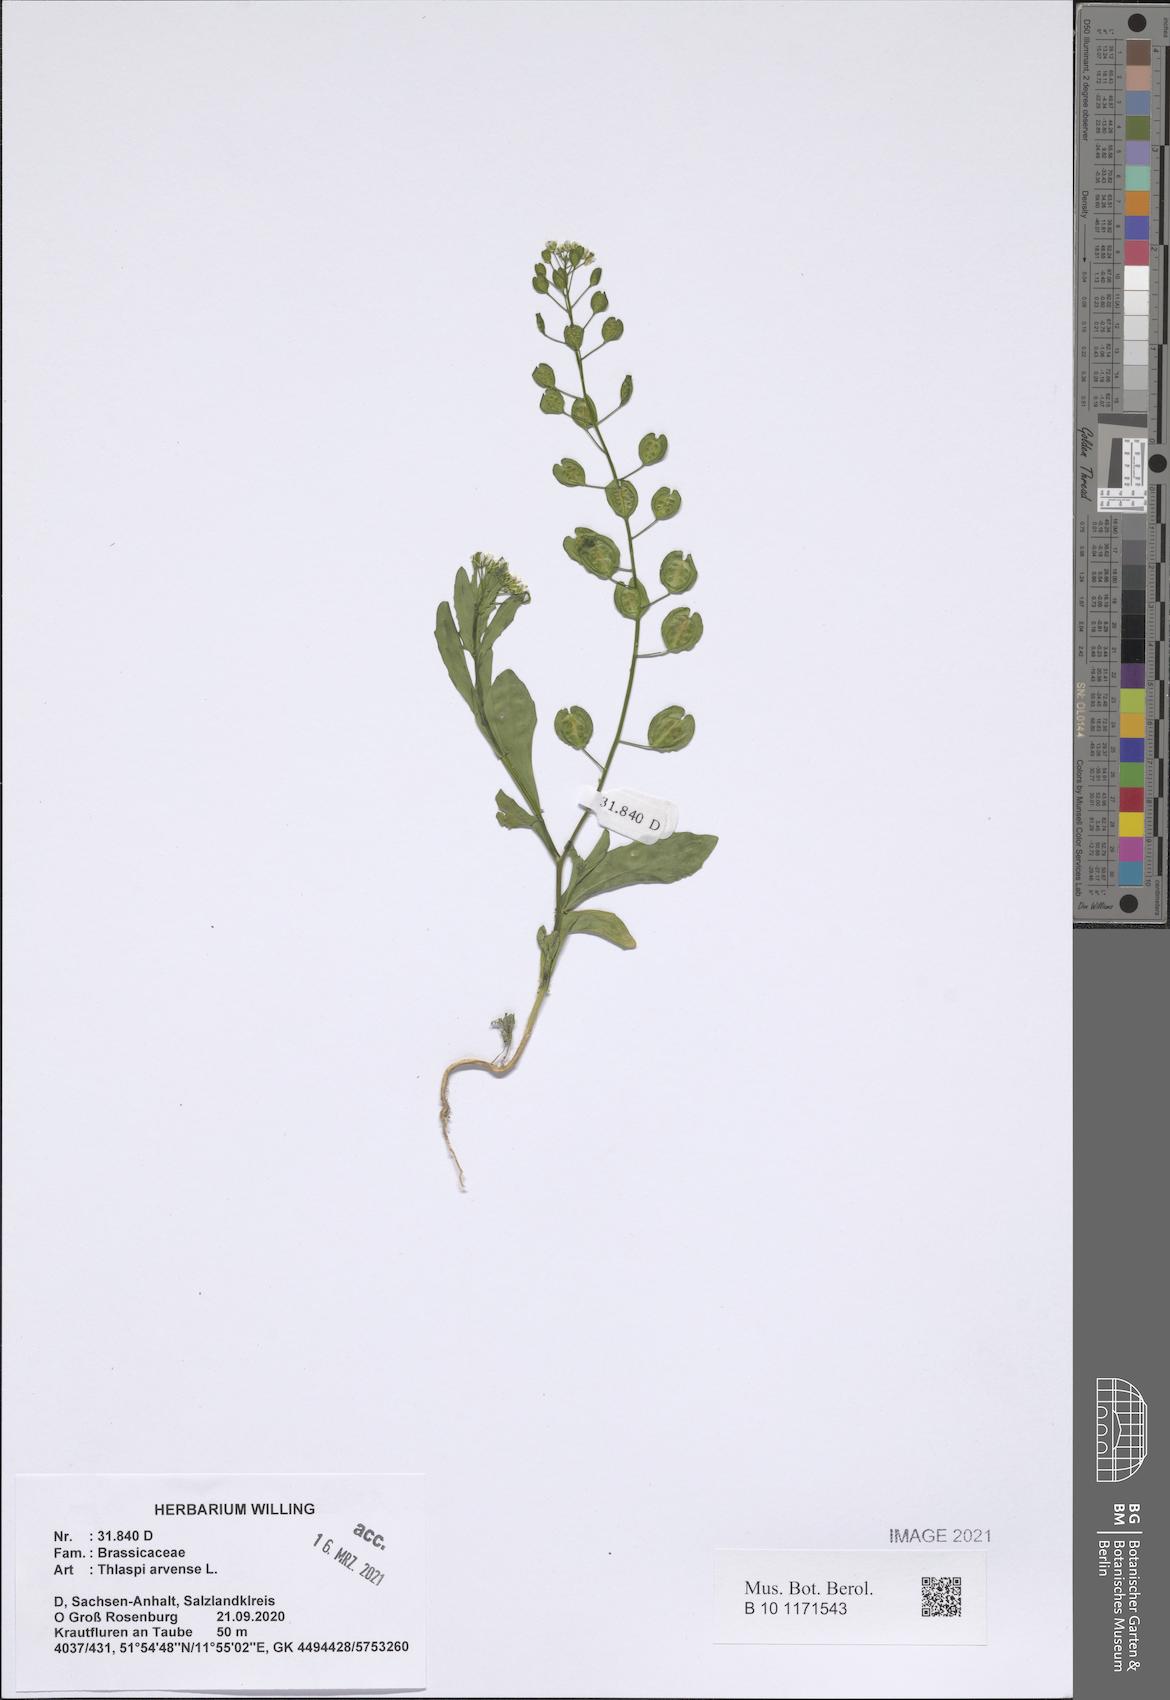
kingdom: Plantae
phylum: Tracheophyta
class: Magnoliopsida
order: Brassicales
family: Brassicaceae
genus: Thlaspi
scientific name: Thlaspi arvense
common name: Field pennycress
